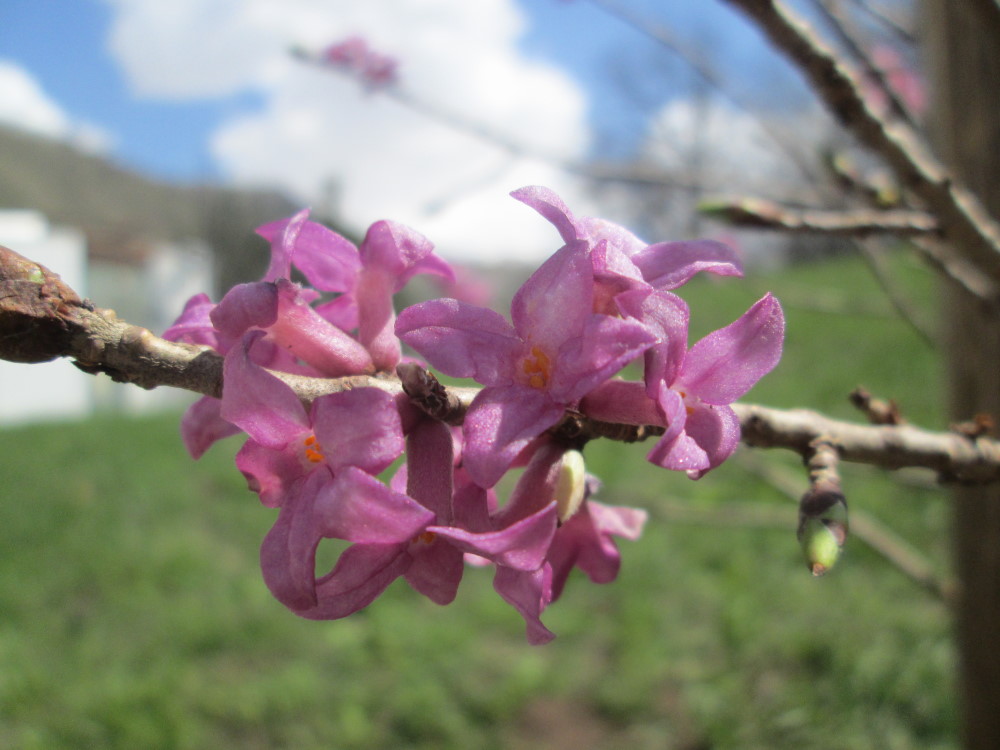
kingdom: Plantae
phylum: Tracheophyta
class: Magnoliopsida
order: Malvales
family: Thymelaeaceae
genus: Daphne
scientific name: Daphne mezereum
